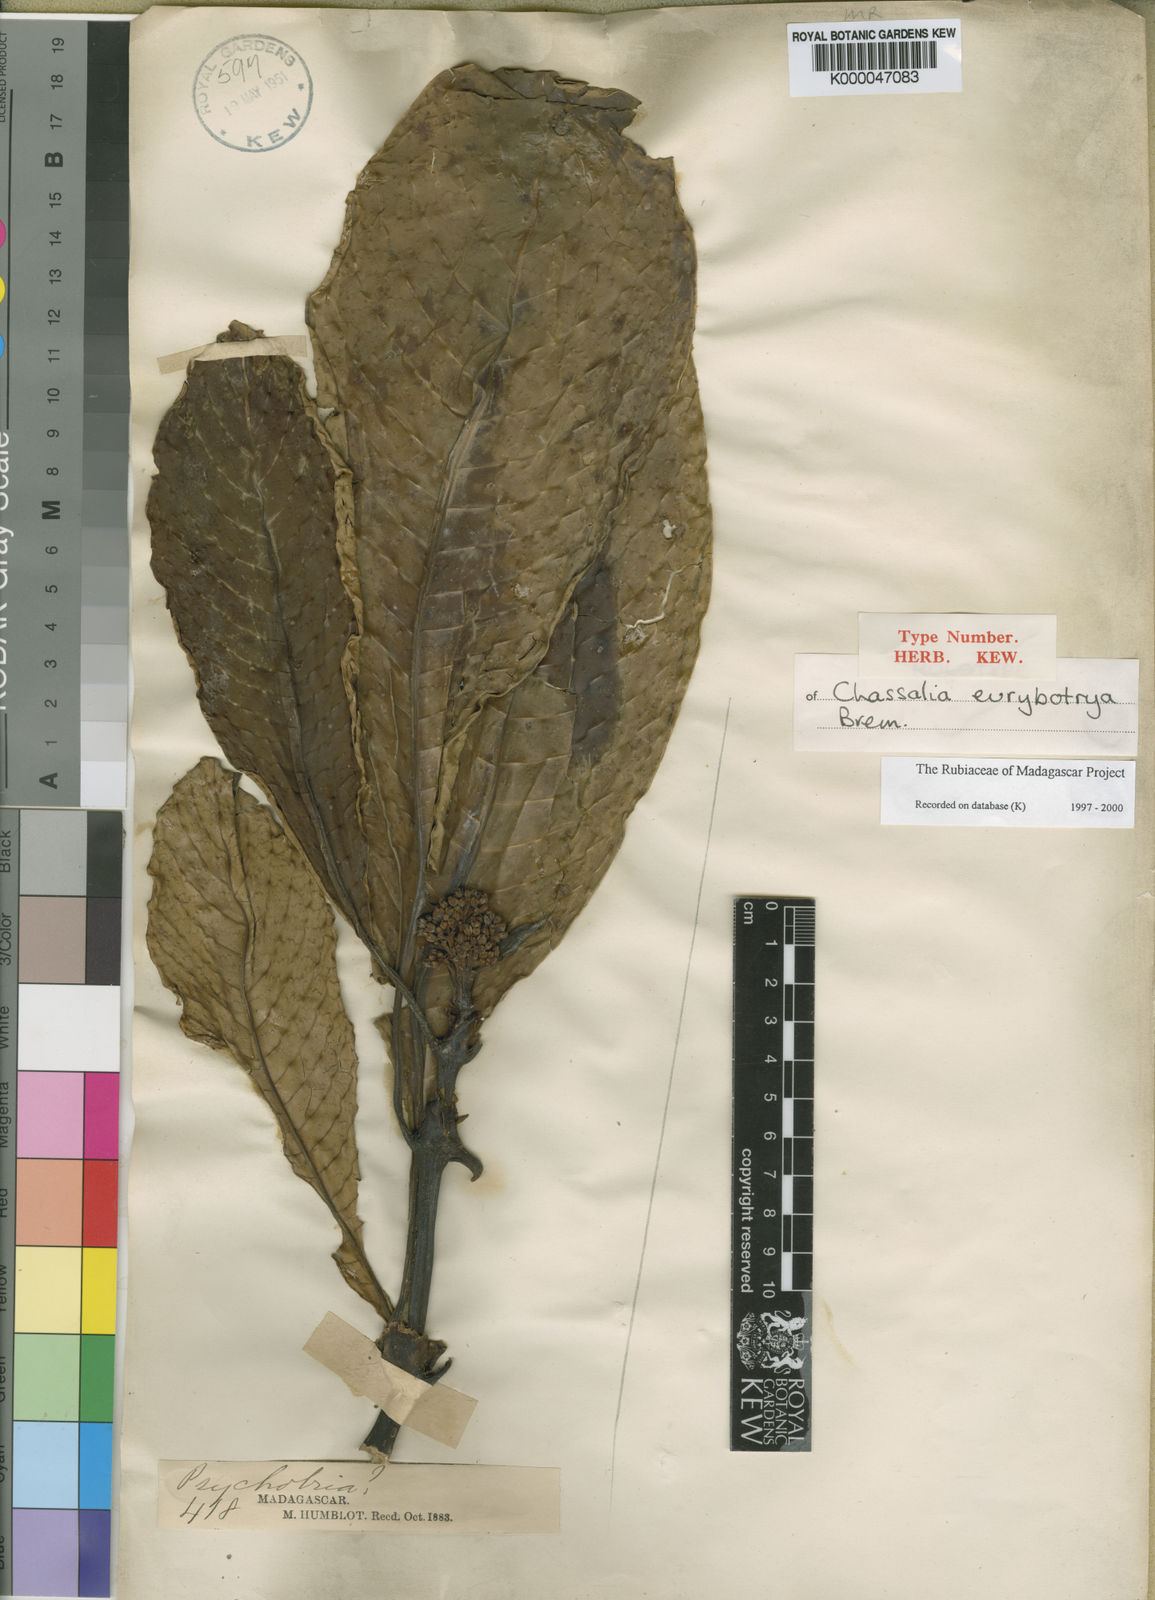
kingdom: Plantae
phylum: Tracheophyta
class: Magnoliopsida
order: Gentianales
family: Rubiaceae
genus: Chassalia
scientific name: Chassalia eurybotrya
